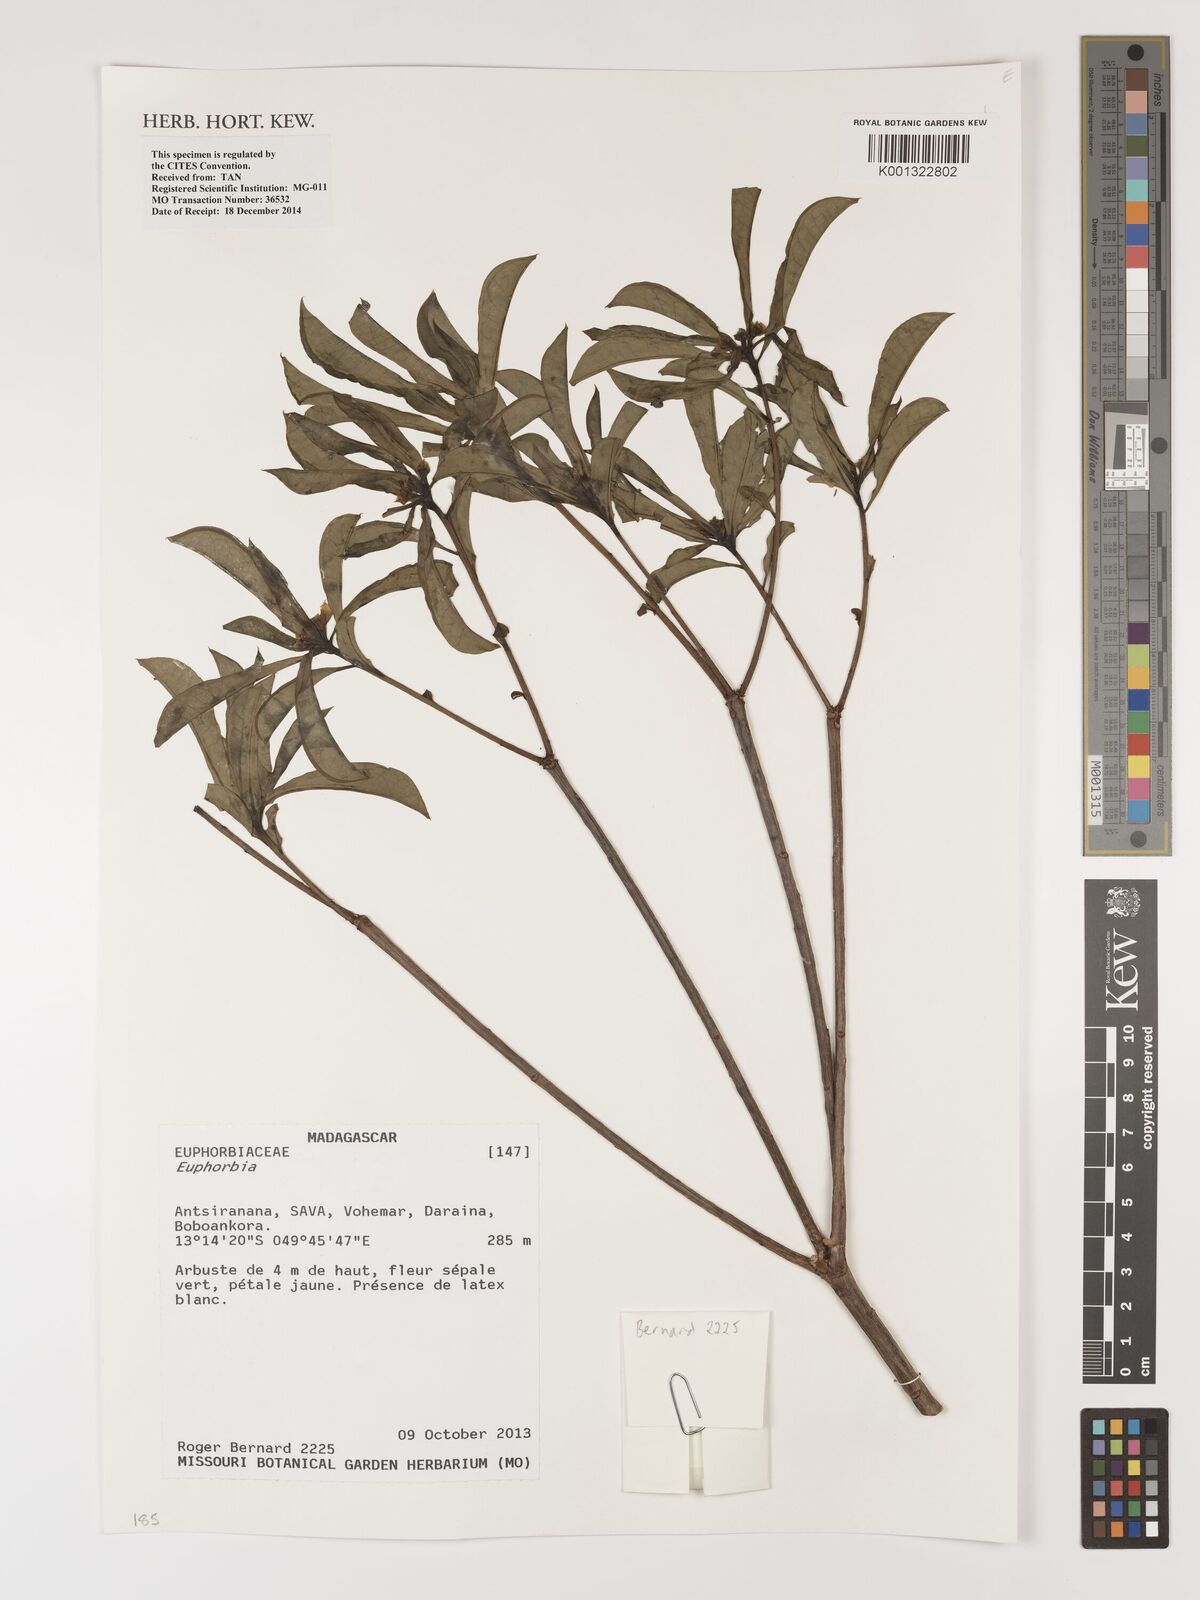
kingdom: Plantae
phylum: Tracheophyta
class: Magnoliopsida
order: Malpighiales
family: Euphorbiaceae
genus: Euphorbia
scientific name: Euphorbia
